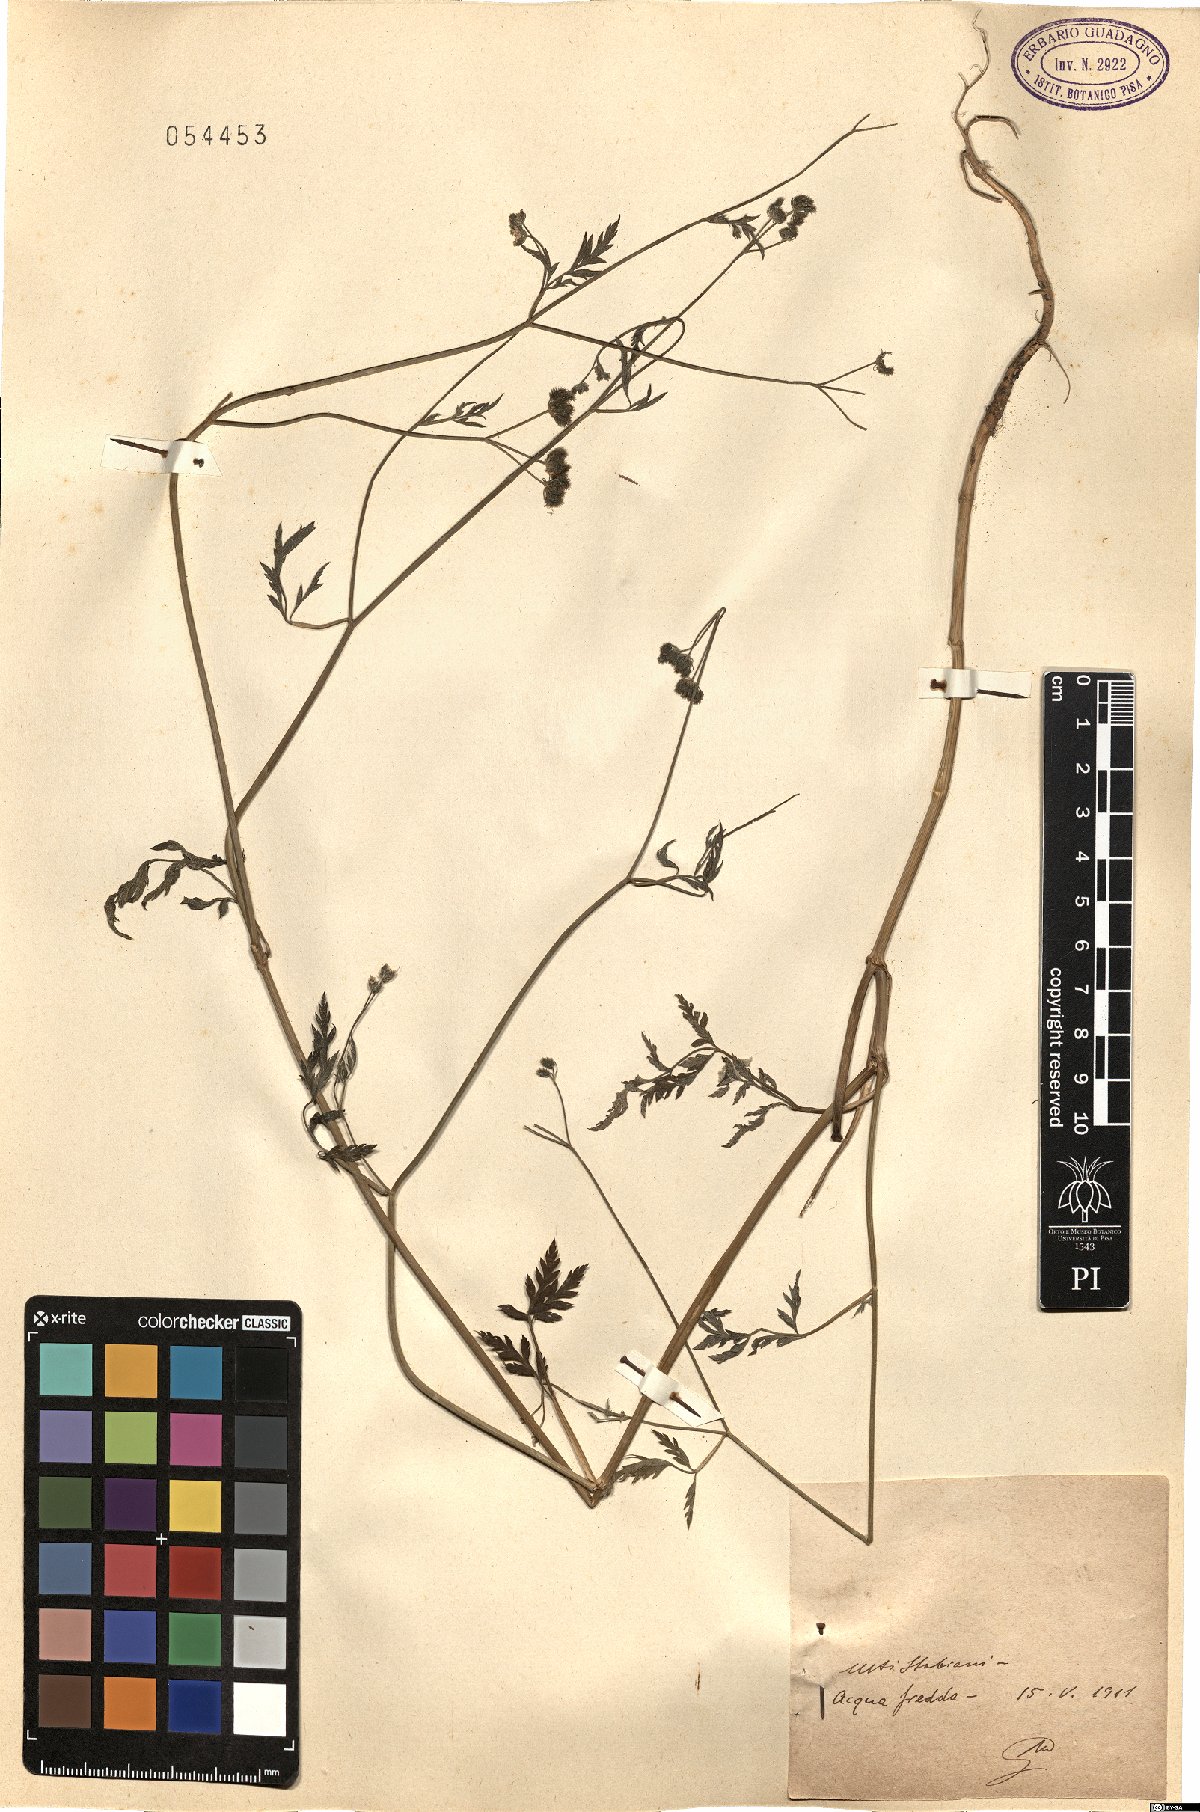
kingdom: Plantae
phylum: Tracheophyta
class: Magnoliopsida
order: Apiales
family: Apiaceae
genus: Torilis
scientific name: Torilis
